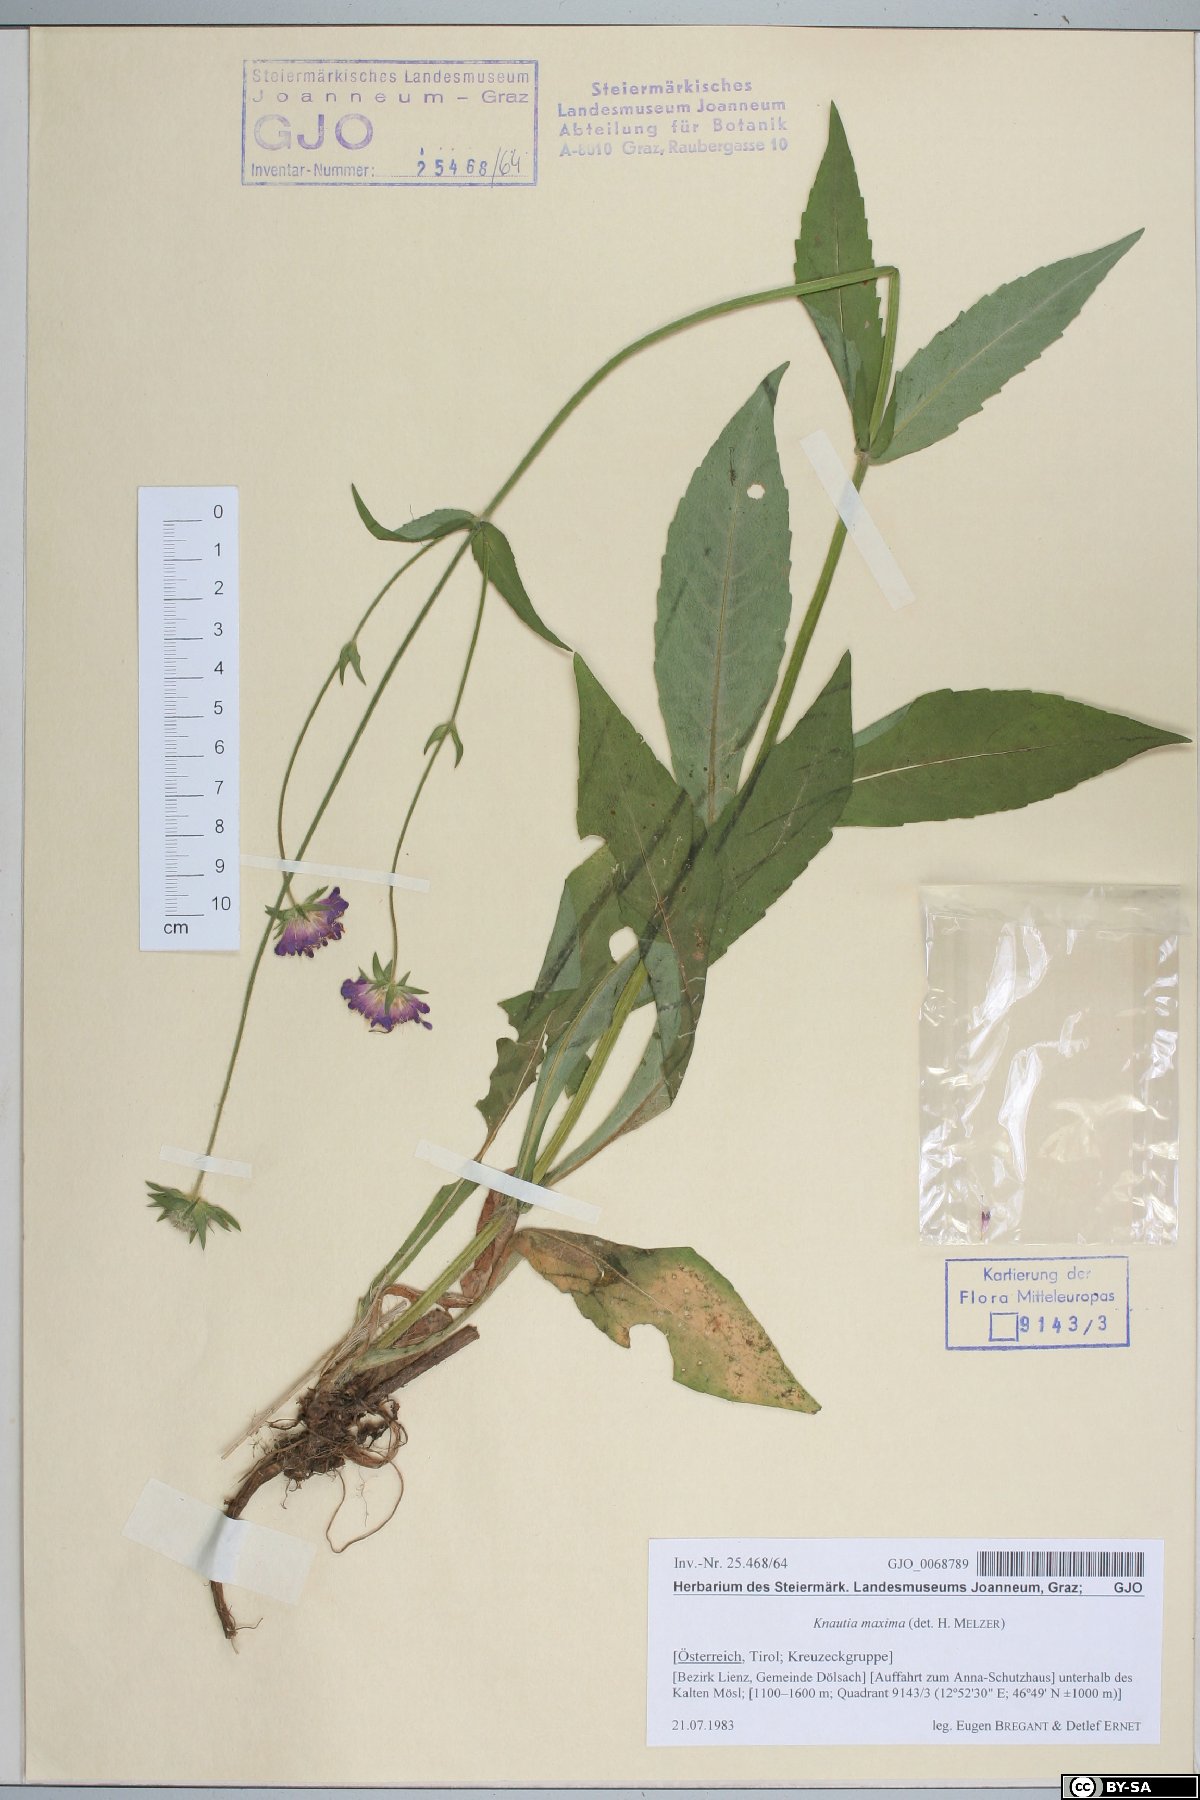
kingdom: Plantae
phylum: Tracheophyta
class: Magnoliopsida
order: Dipsacales
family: Caprifoliaceae
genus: Knautia
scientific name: Knautia dipsacifolia
